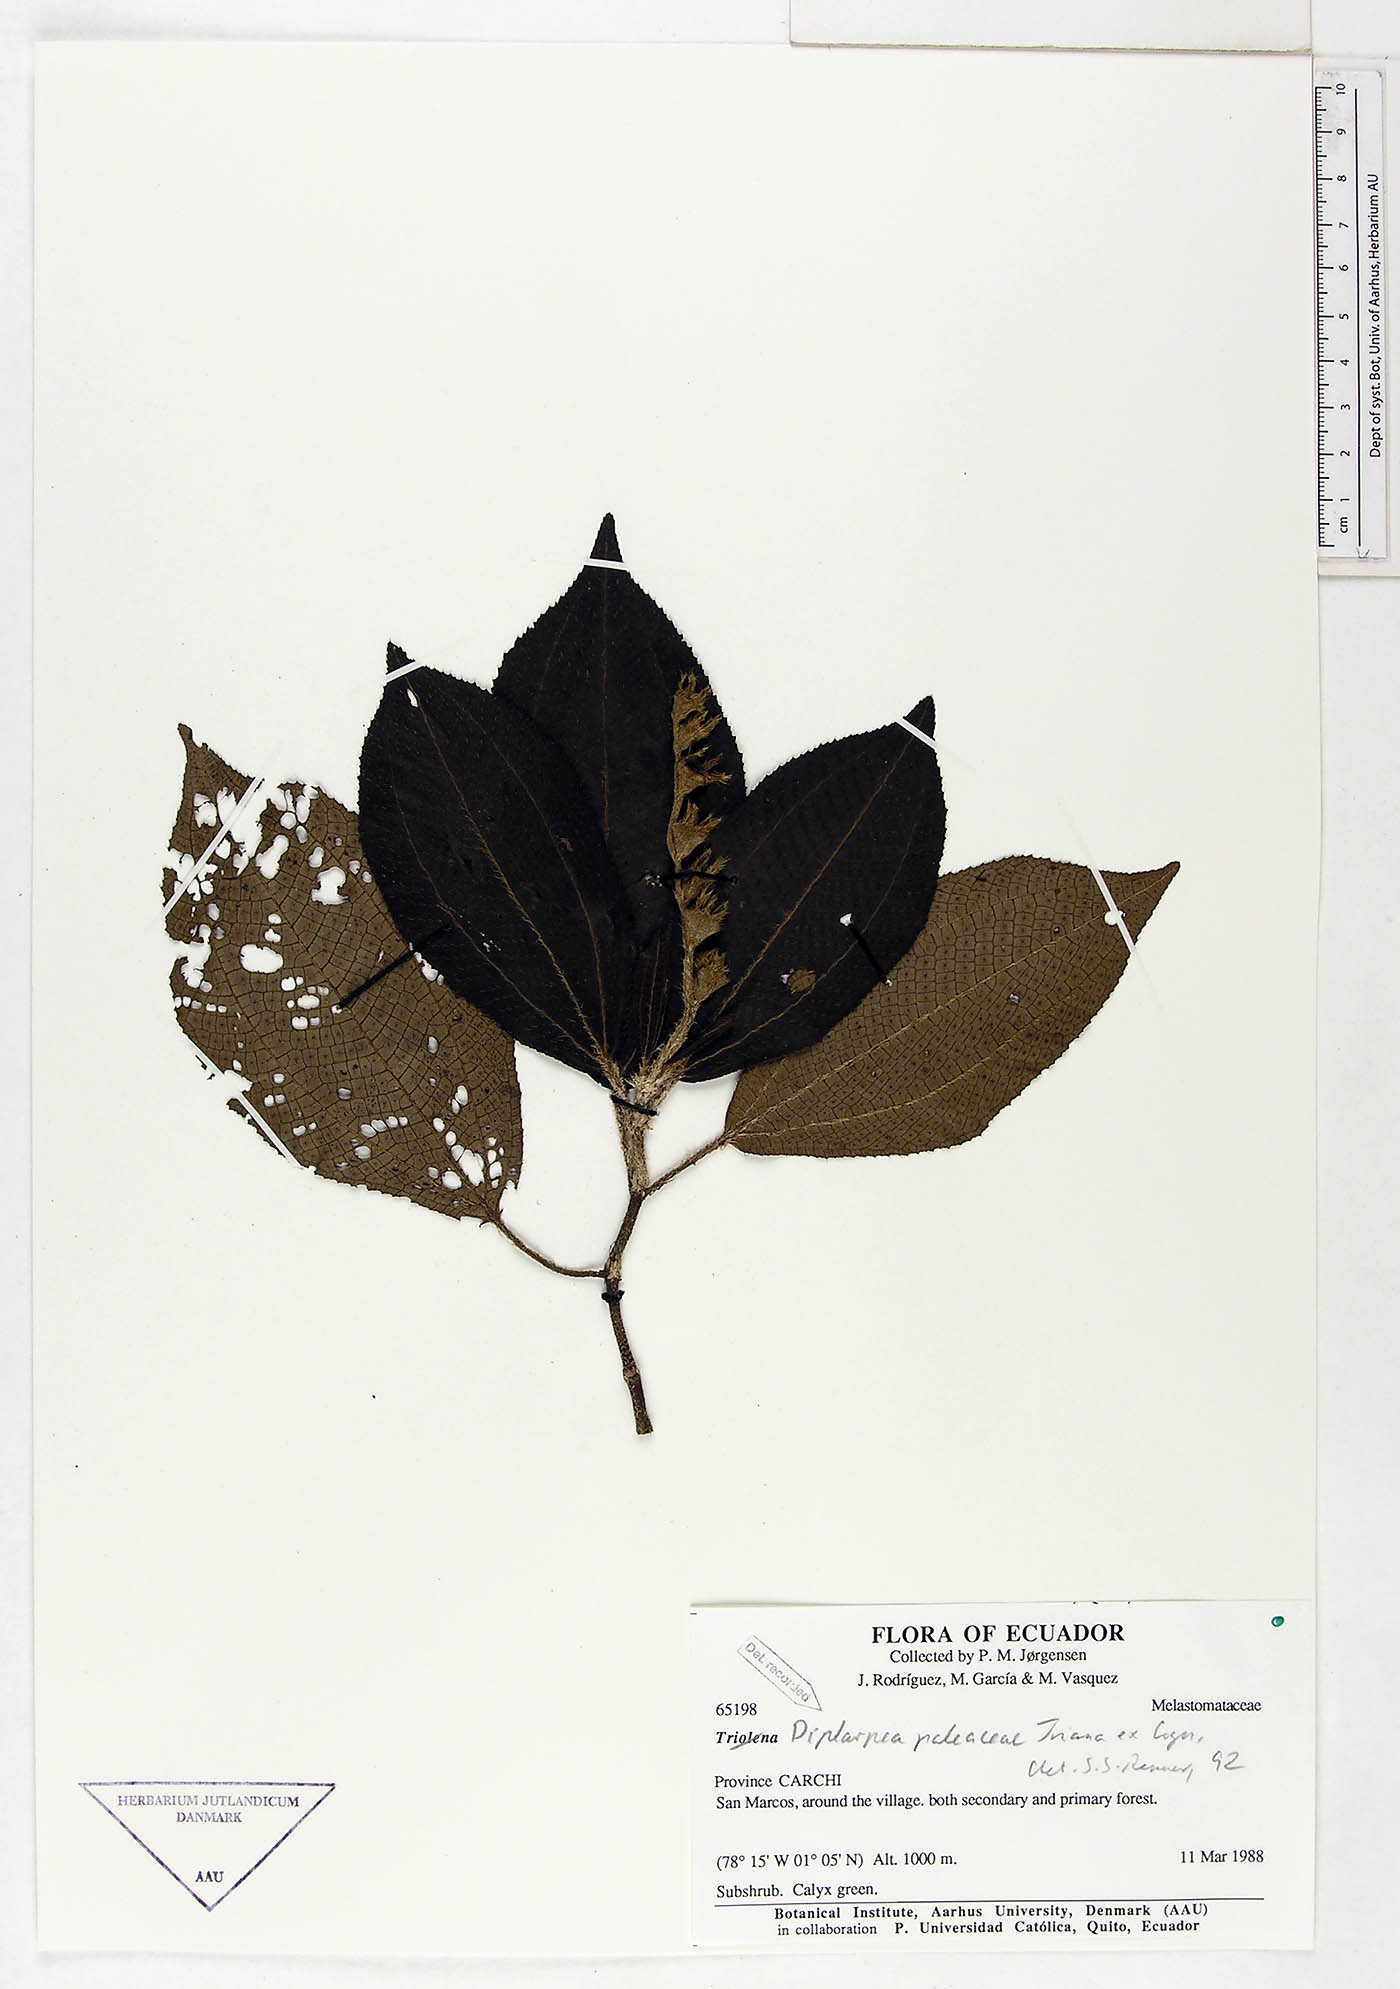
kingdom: Plantae
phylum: Tracheophyta
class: Magnoliopsida
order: Myrtales
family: Melastomataceae
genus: Andesanthus
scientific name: Andesanthus paleaceus
